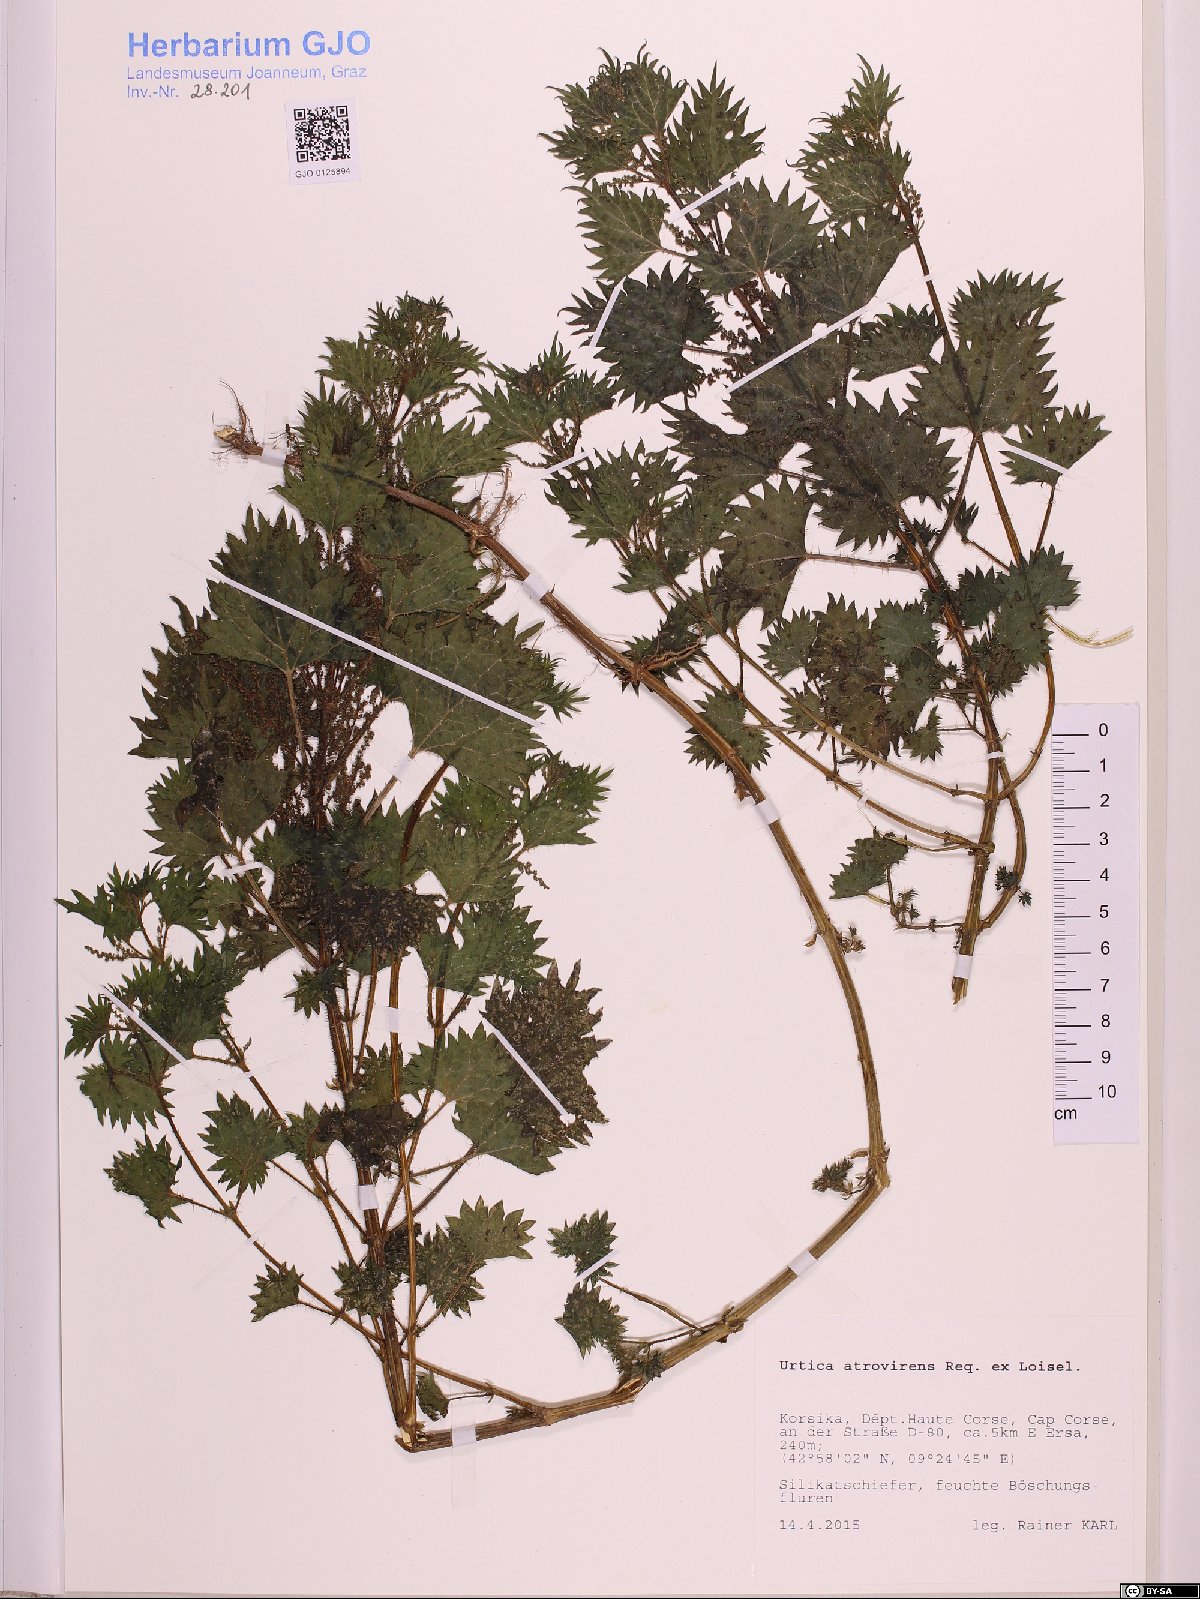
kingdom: Plantae
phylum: Tracheophyta
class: Magnoliopsida
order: Rosales
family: Urticaceae
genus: Urtica
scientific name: Urtica atrovirens
